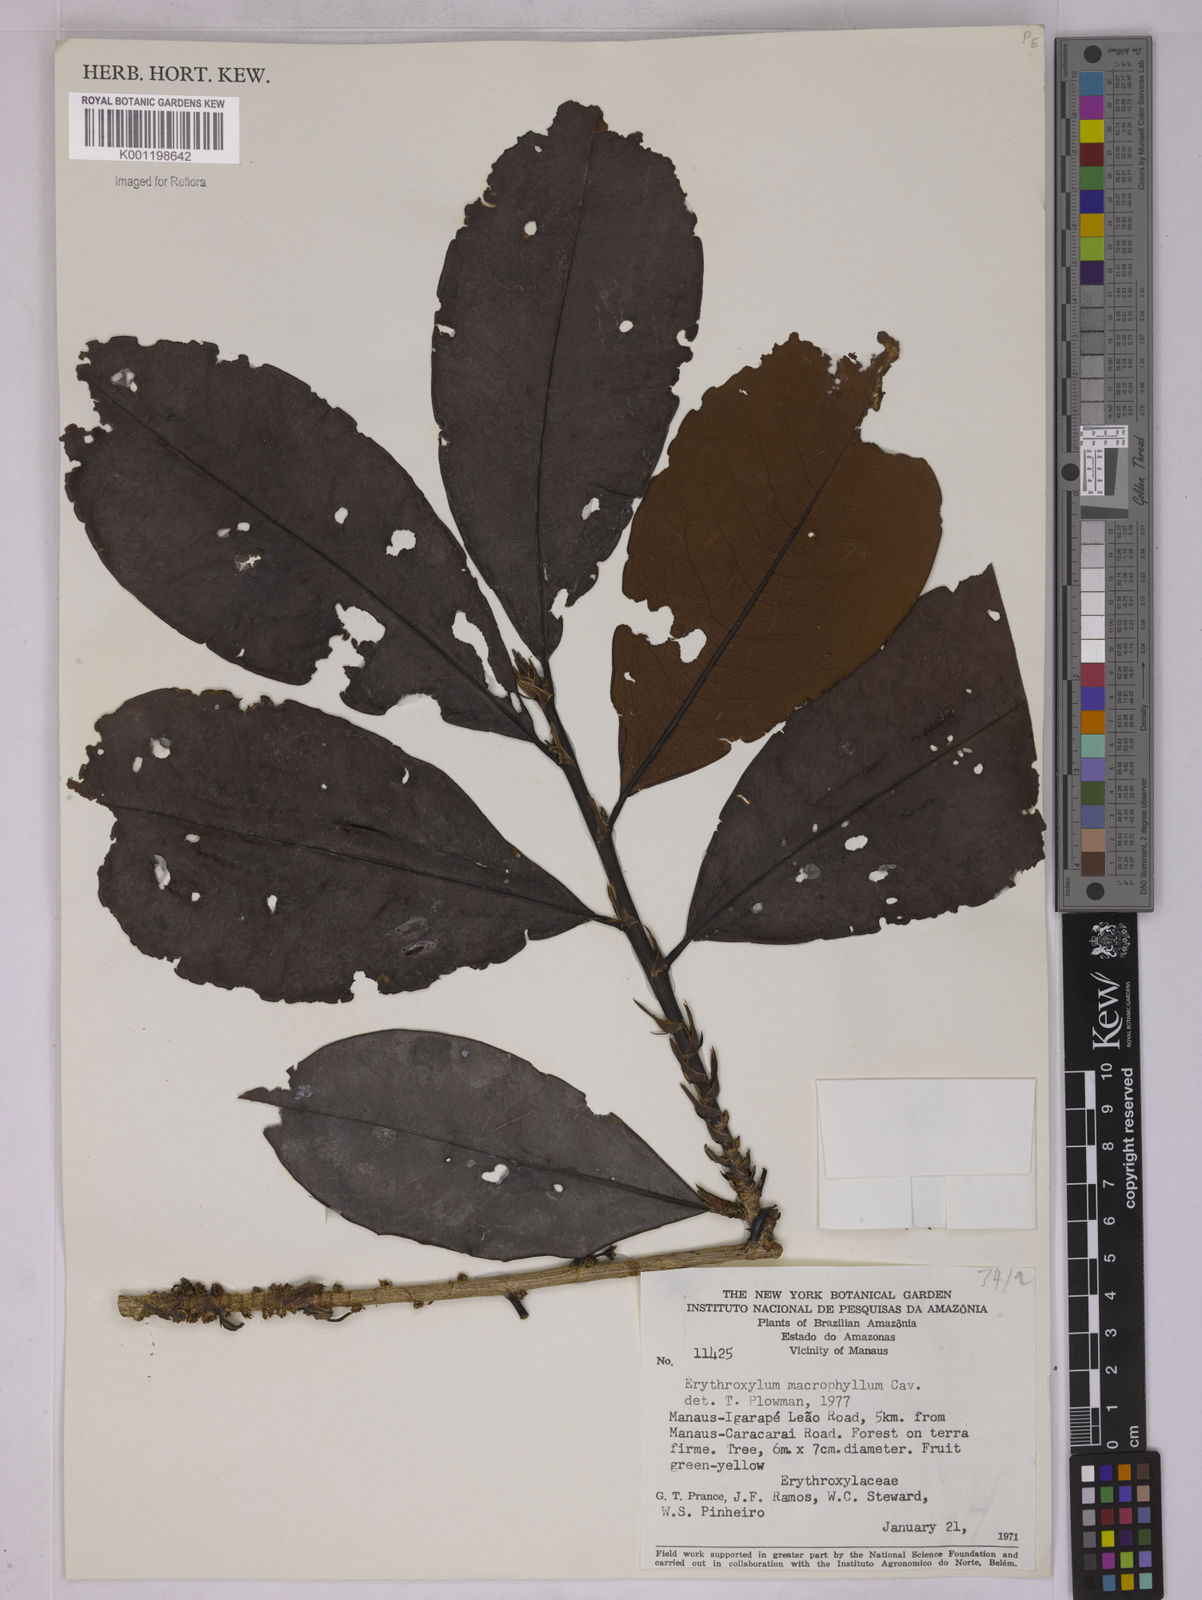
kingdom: Plantae
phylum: Tracheophyta
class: Magnoliopsida
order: Malpighiales
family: Erythroxylaceae
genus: Erythroxylum
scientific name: Erythroxylum macrophyllum
